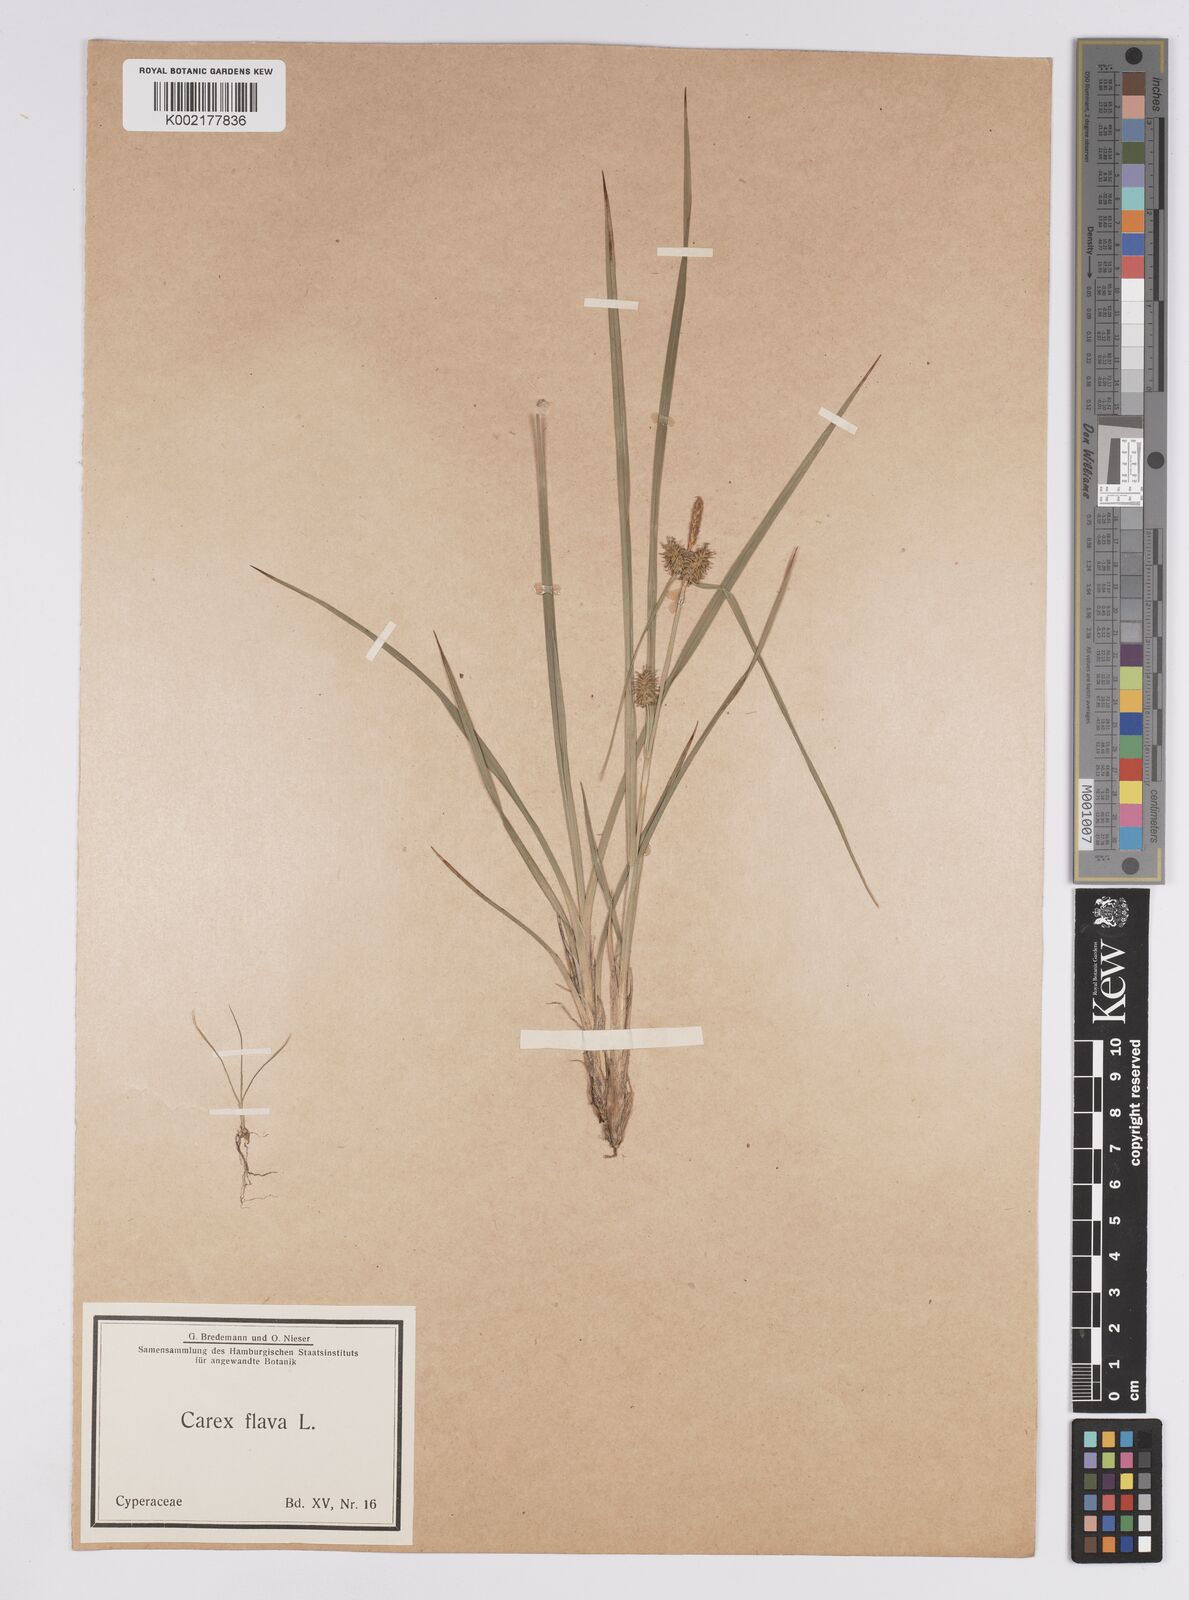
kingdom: Plantae
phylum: Tracheophyta
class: Liliopsida
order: Poales
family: Cyperaceae
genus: Carex
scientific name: Carex flava
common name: Large yellow-sedge
